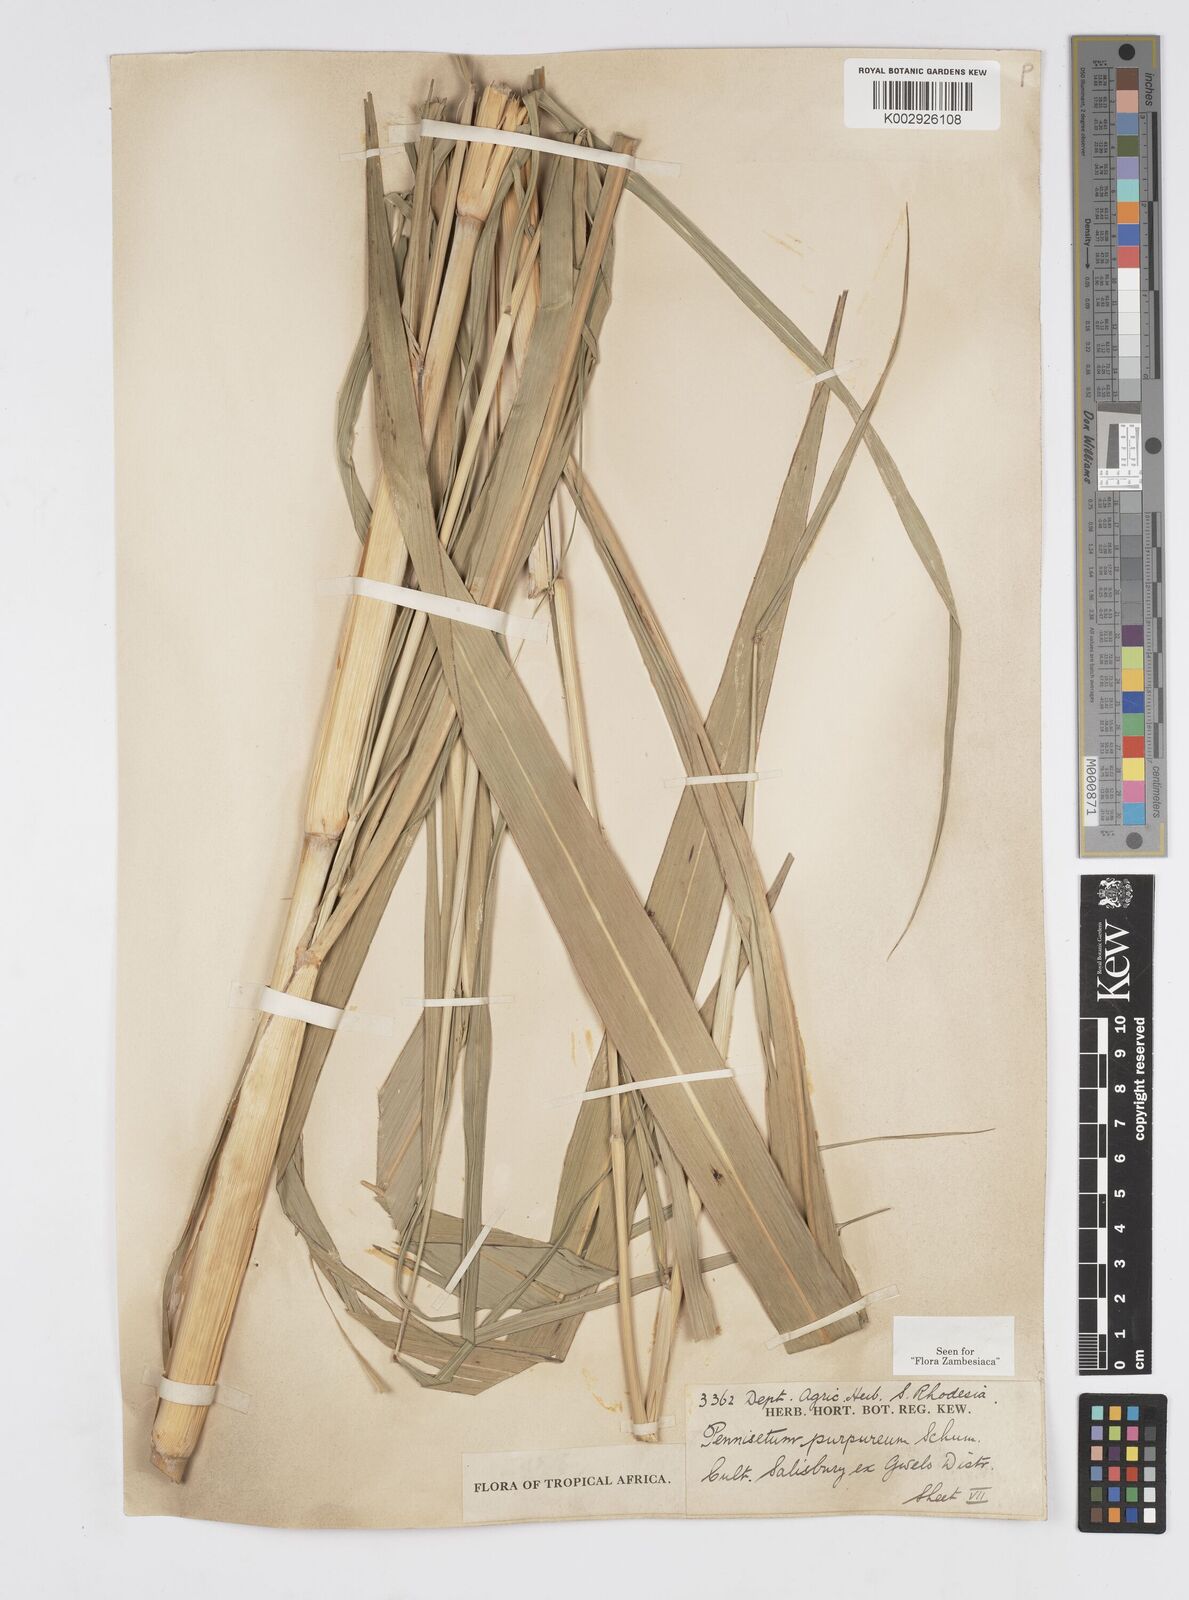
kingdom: Plantae
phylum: Tracheophyta
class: Liliopsida
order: Poales
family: Poaceae
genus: Cenchrus
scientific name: Cenchrus purpureus
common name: Elephant grass
